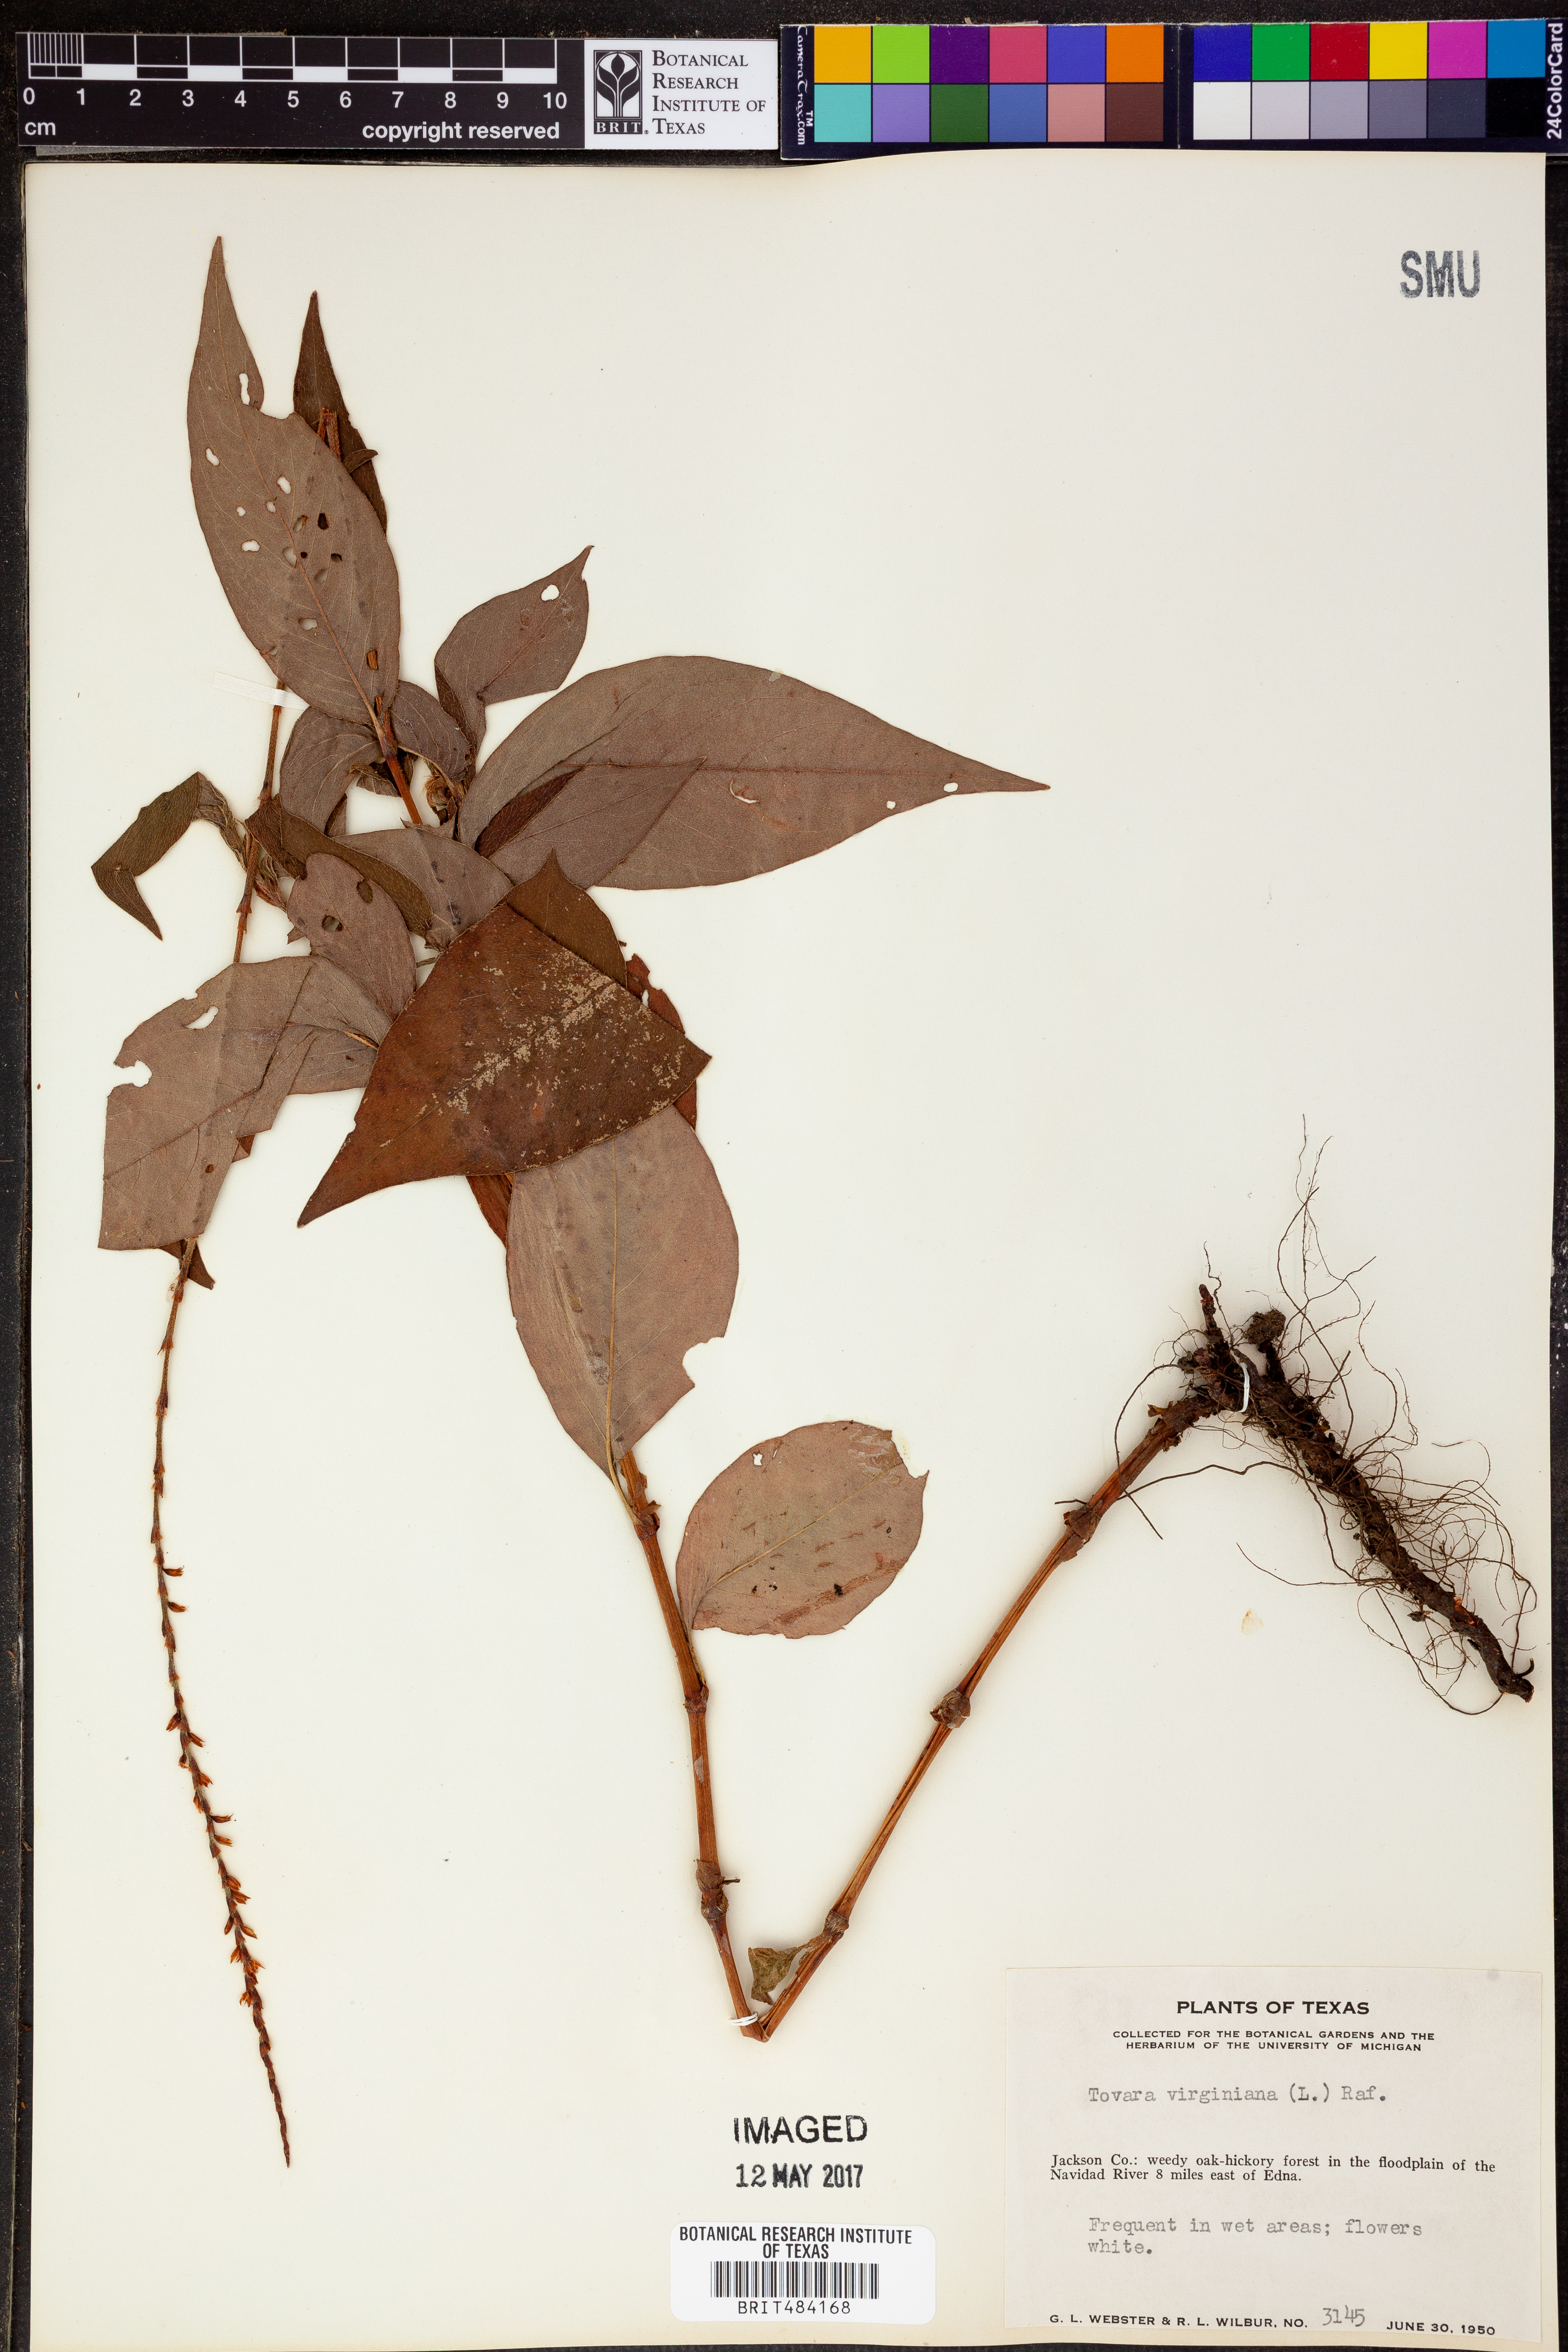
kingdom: Plantae
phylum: Tracheophyta
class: Magnoliopsida
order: Caryophyllales
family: Polygonaceae
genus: Persicaria
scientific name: Persicaria virginiana
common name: Jumpseed
